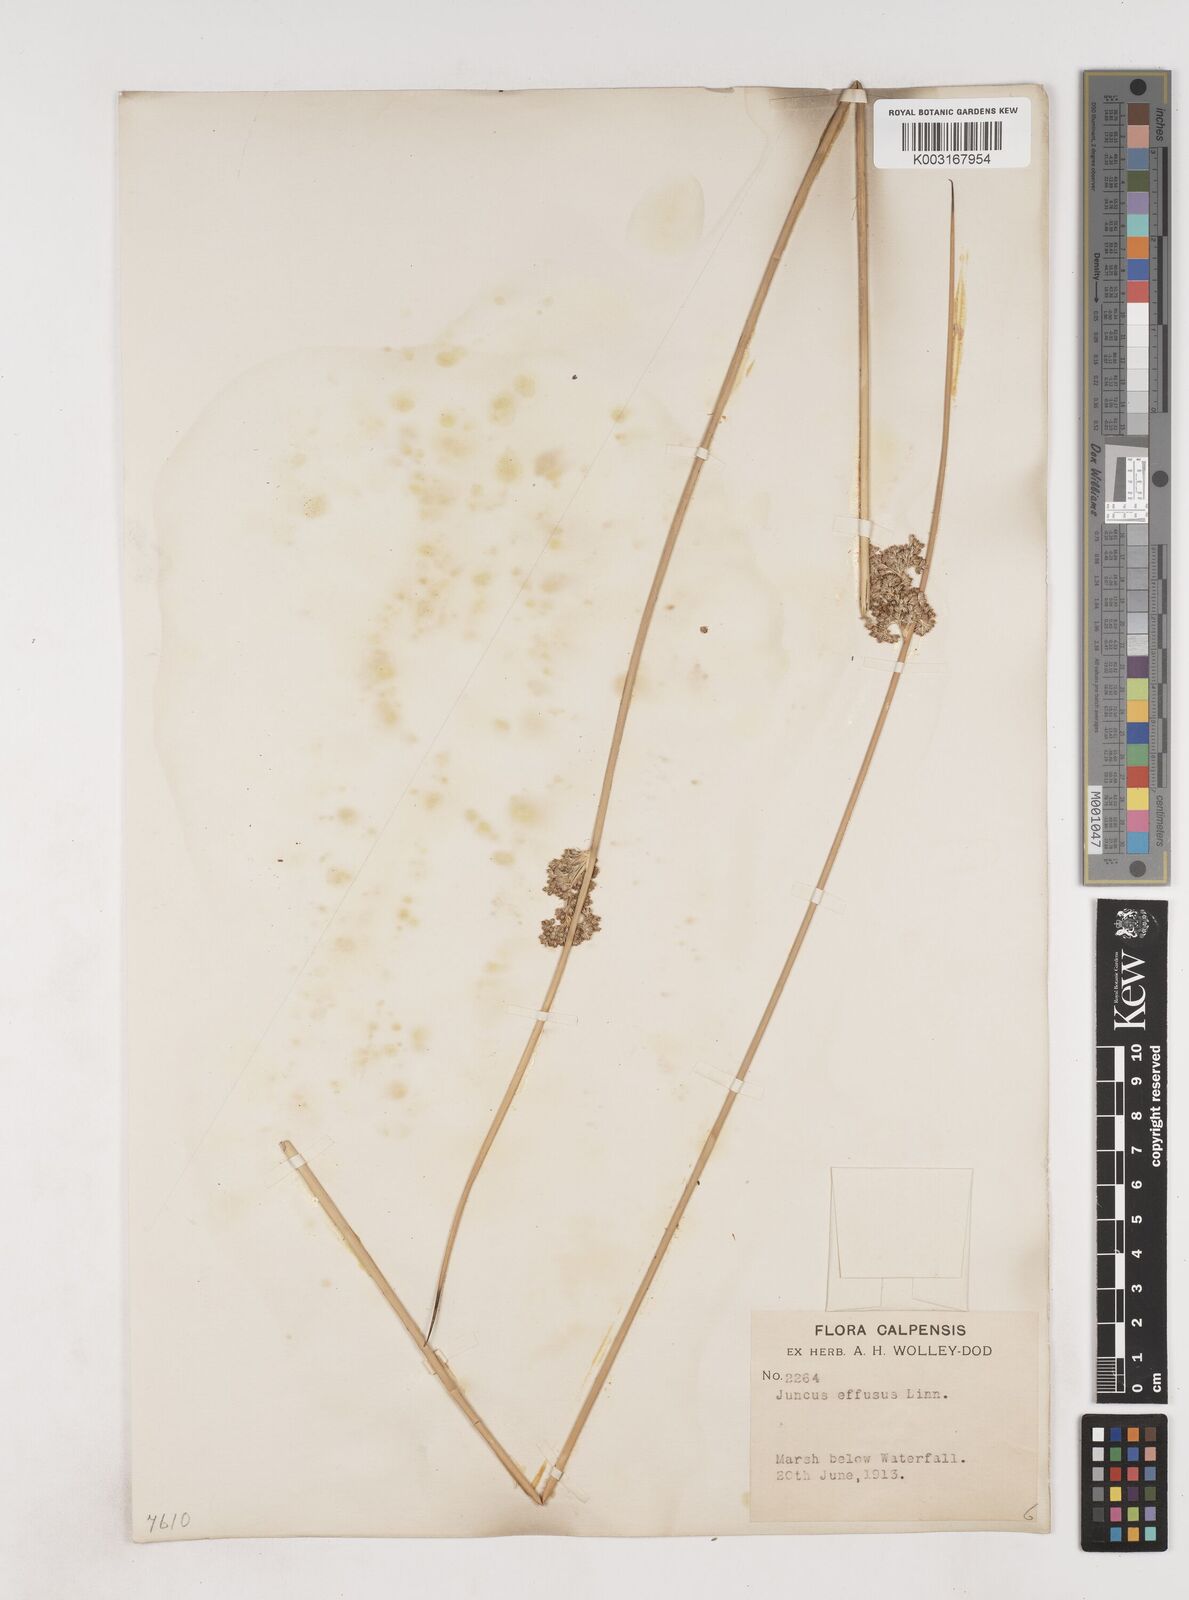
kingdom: Plantae
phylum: Tracheophyta
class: Liliopsida
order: Poales
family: Juncaceae
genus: Juncus
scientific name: Juncus effusus
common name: Soft rush
